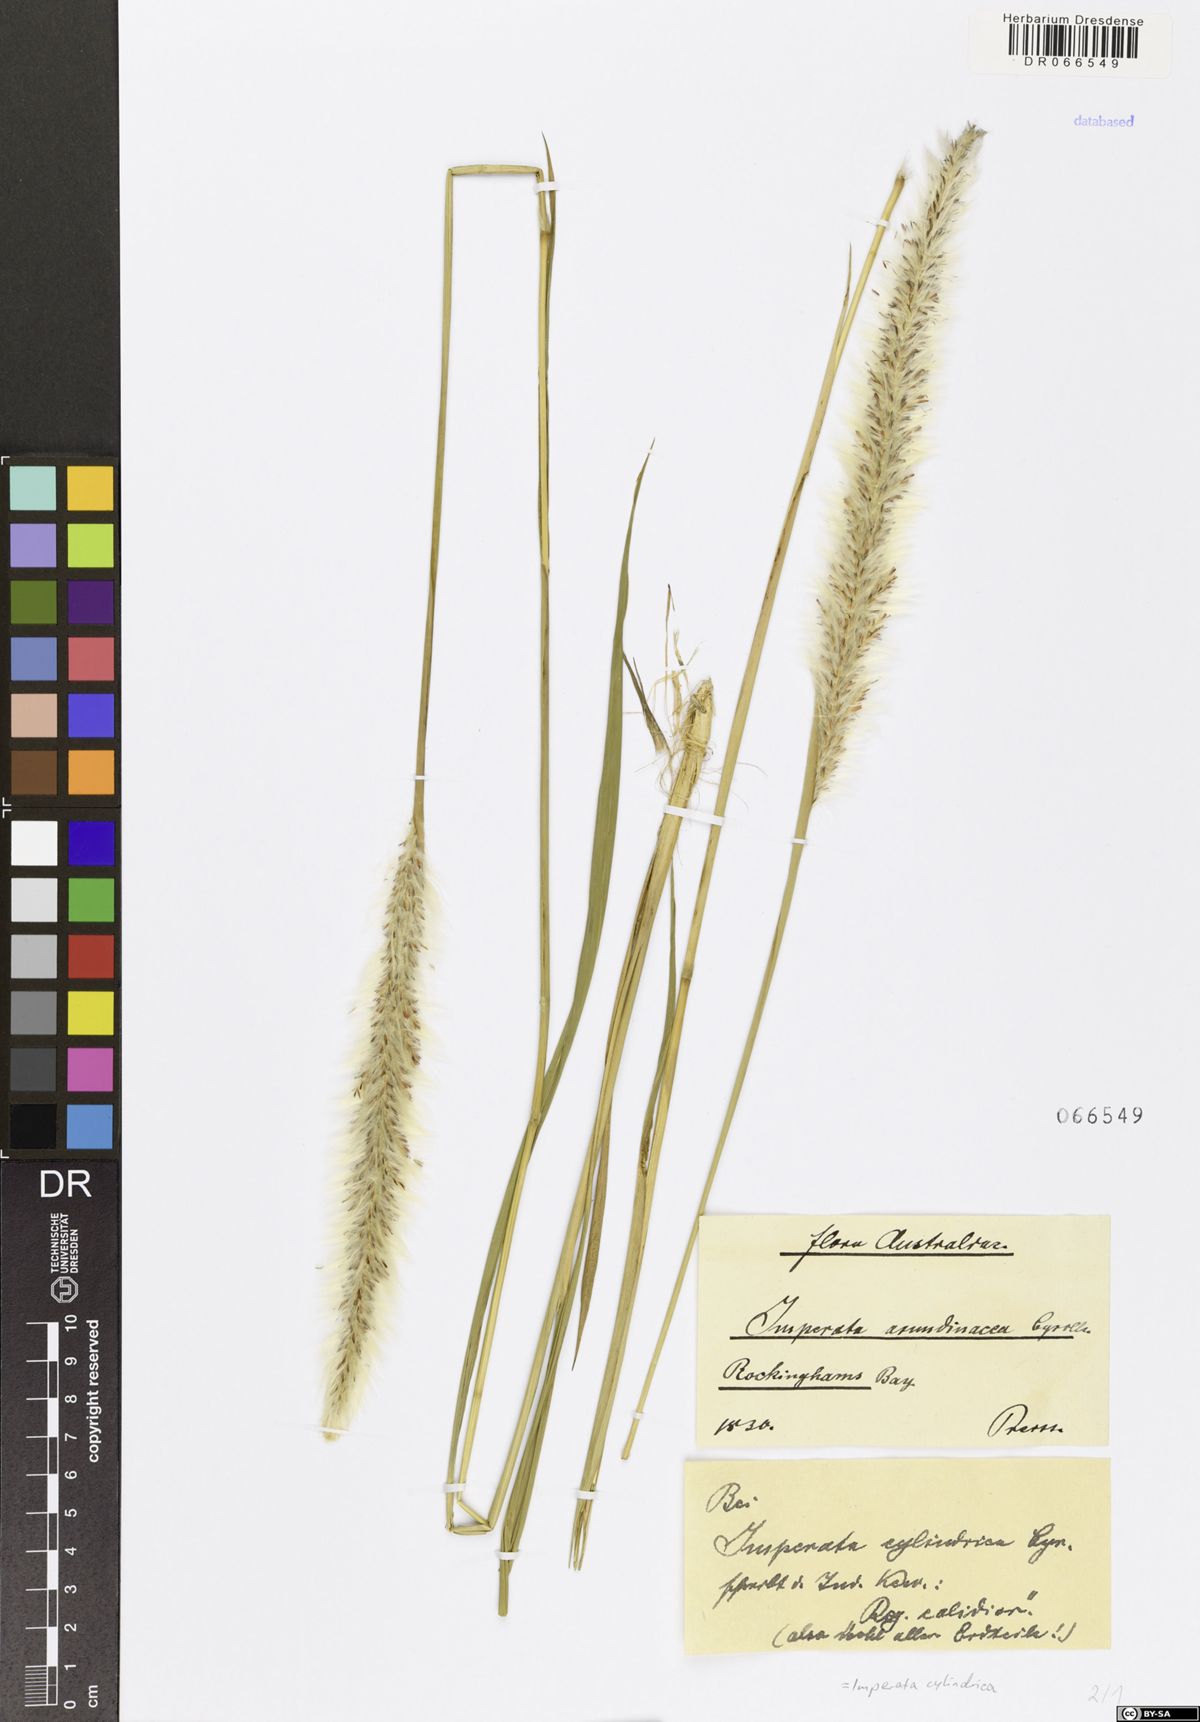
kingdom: Plantae
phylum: Tracheophyta
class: Liliopsida
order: Poales
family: Poaceae
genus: Imperata
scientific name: Imperata cylindrica
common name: Cogongrass
